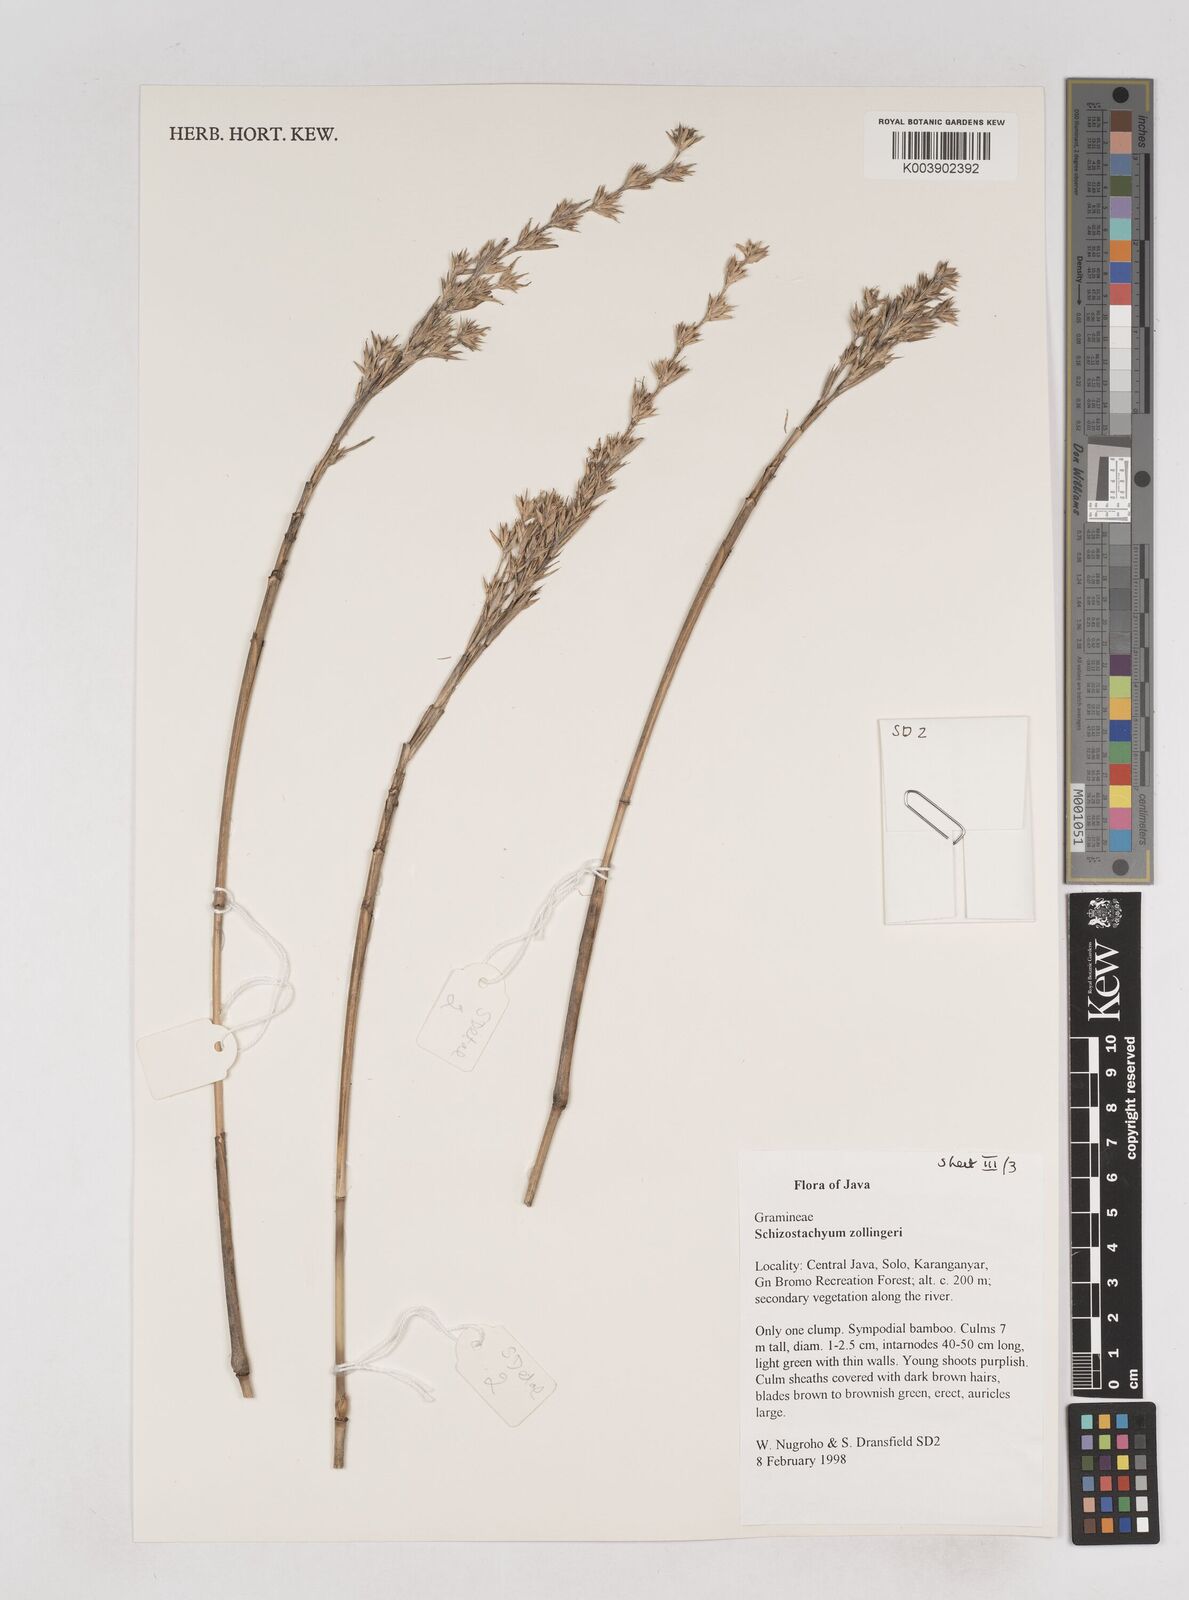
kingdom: Plantae
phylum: Tracheophyta
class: Liliopsida
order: Poales
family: Poaceae
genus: Schizostachyum
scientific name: Schizostachyum zollingeri
